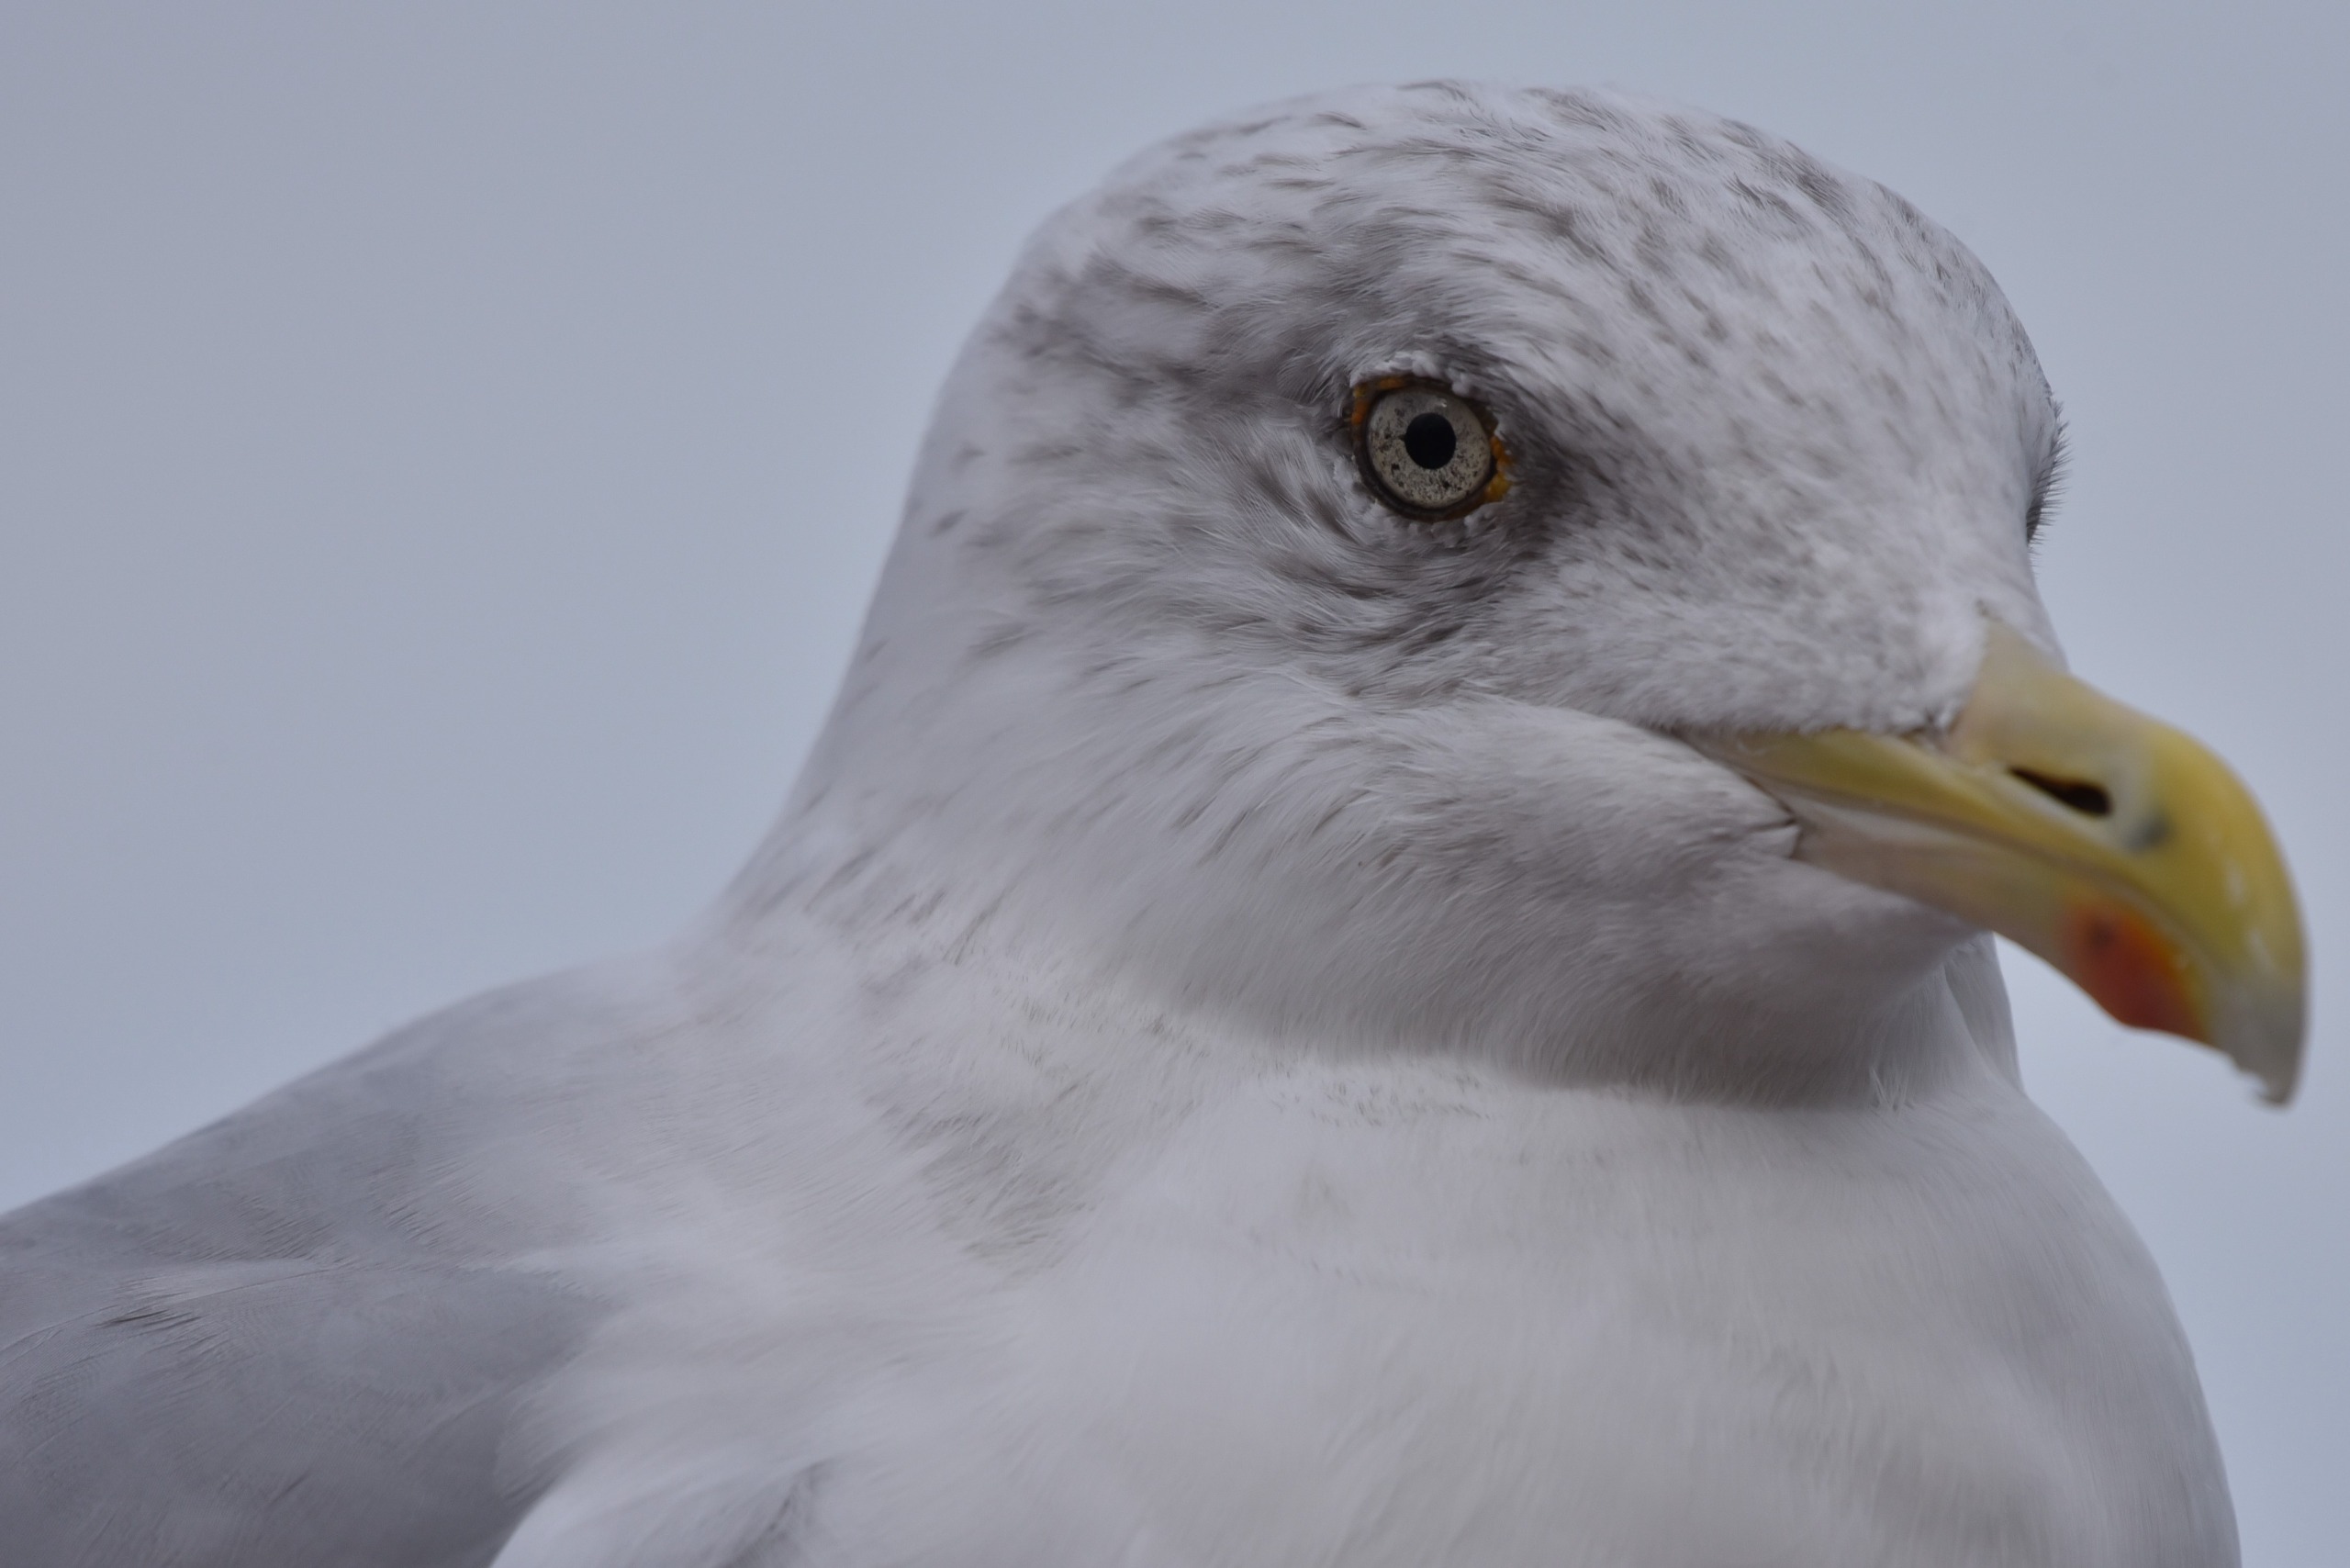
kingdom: Animalia
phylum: Chordata
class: Aves
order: Charadriiformes
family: Laridae
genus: Larus
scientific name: Larus argentatus
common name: Sølvmåge
